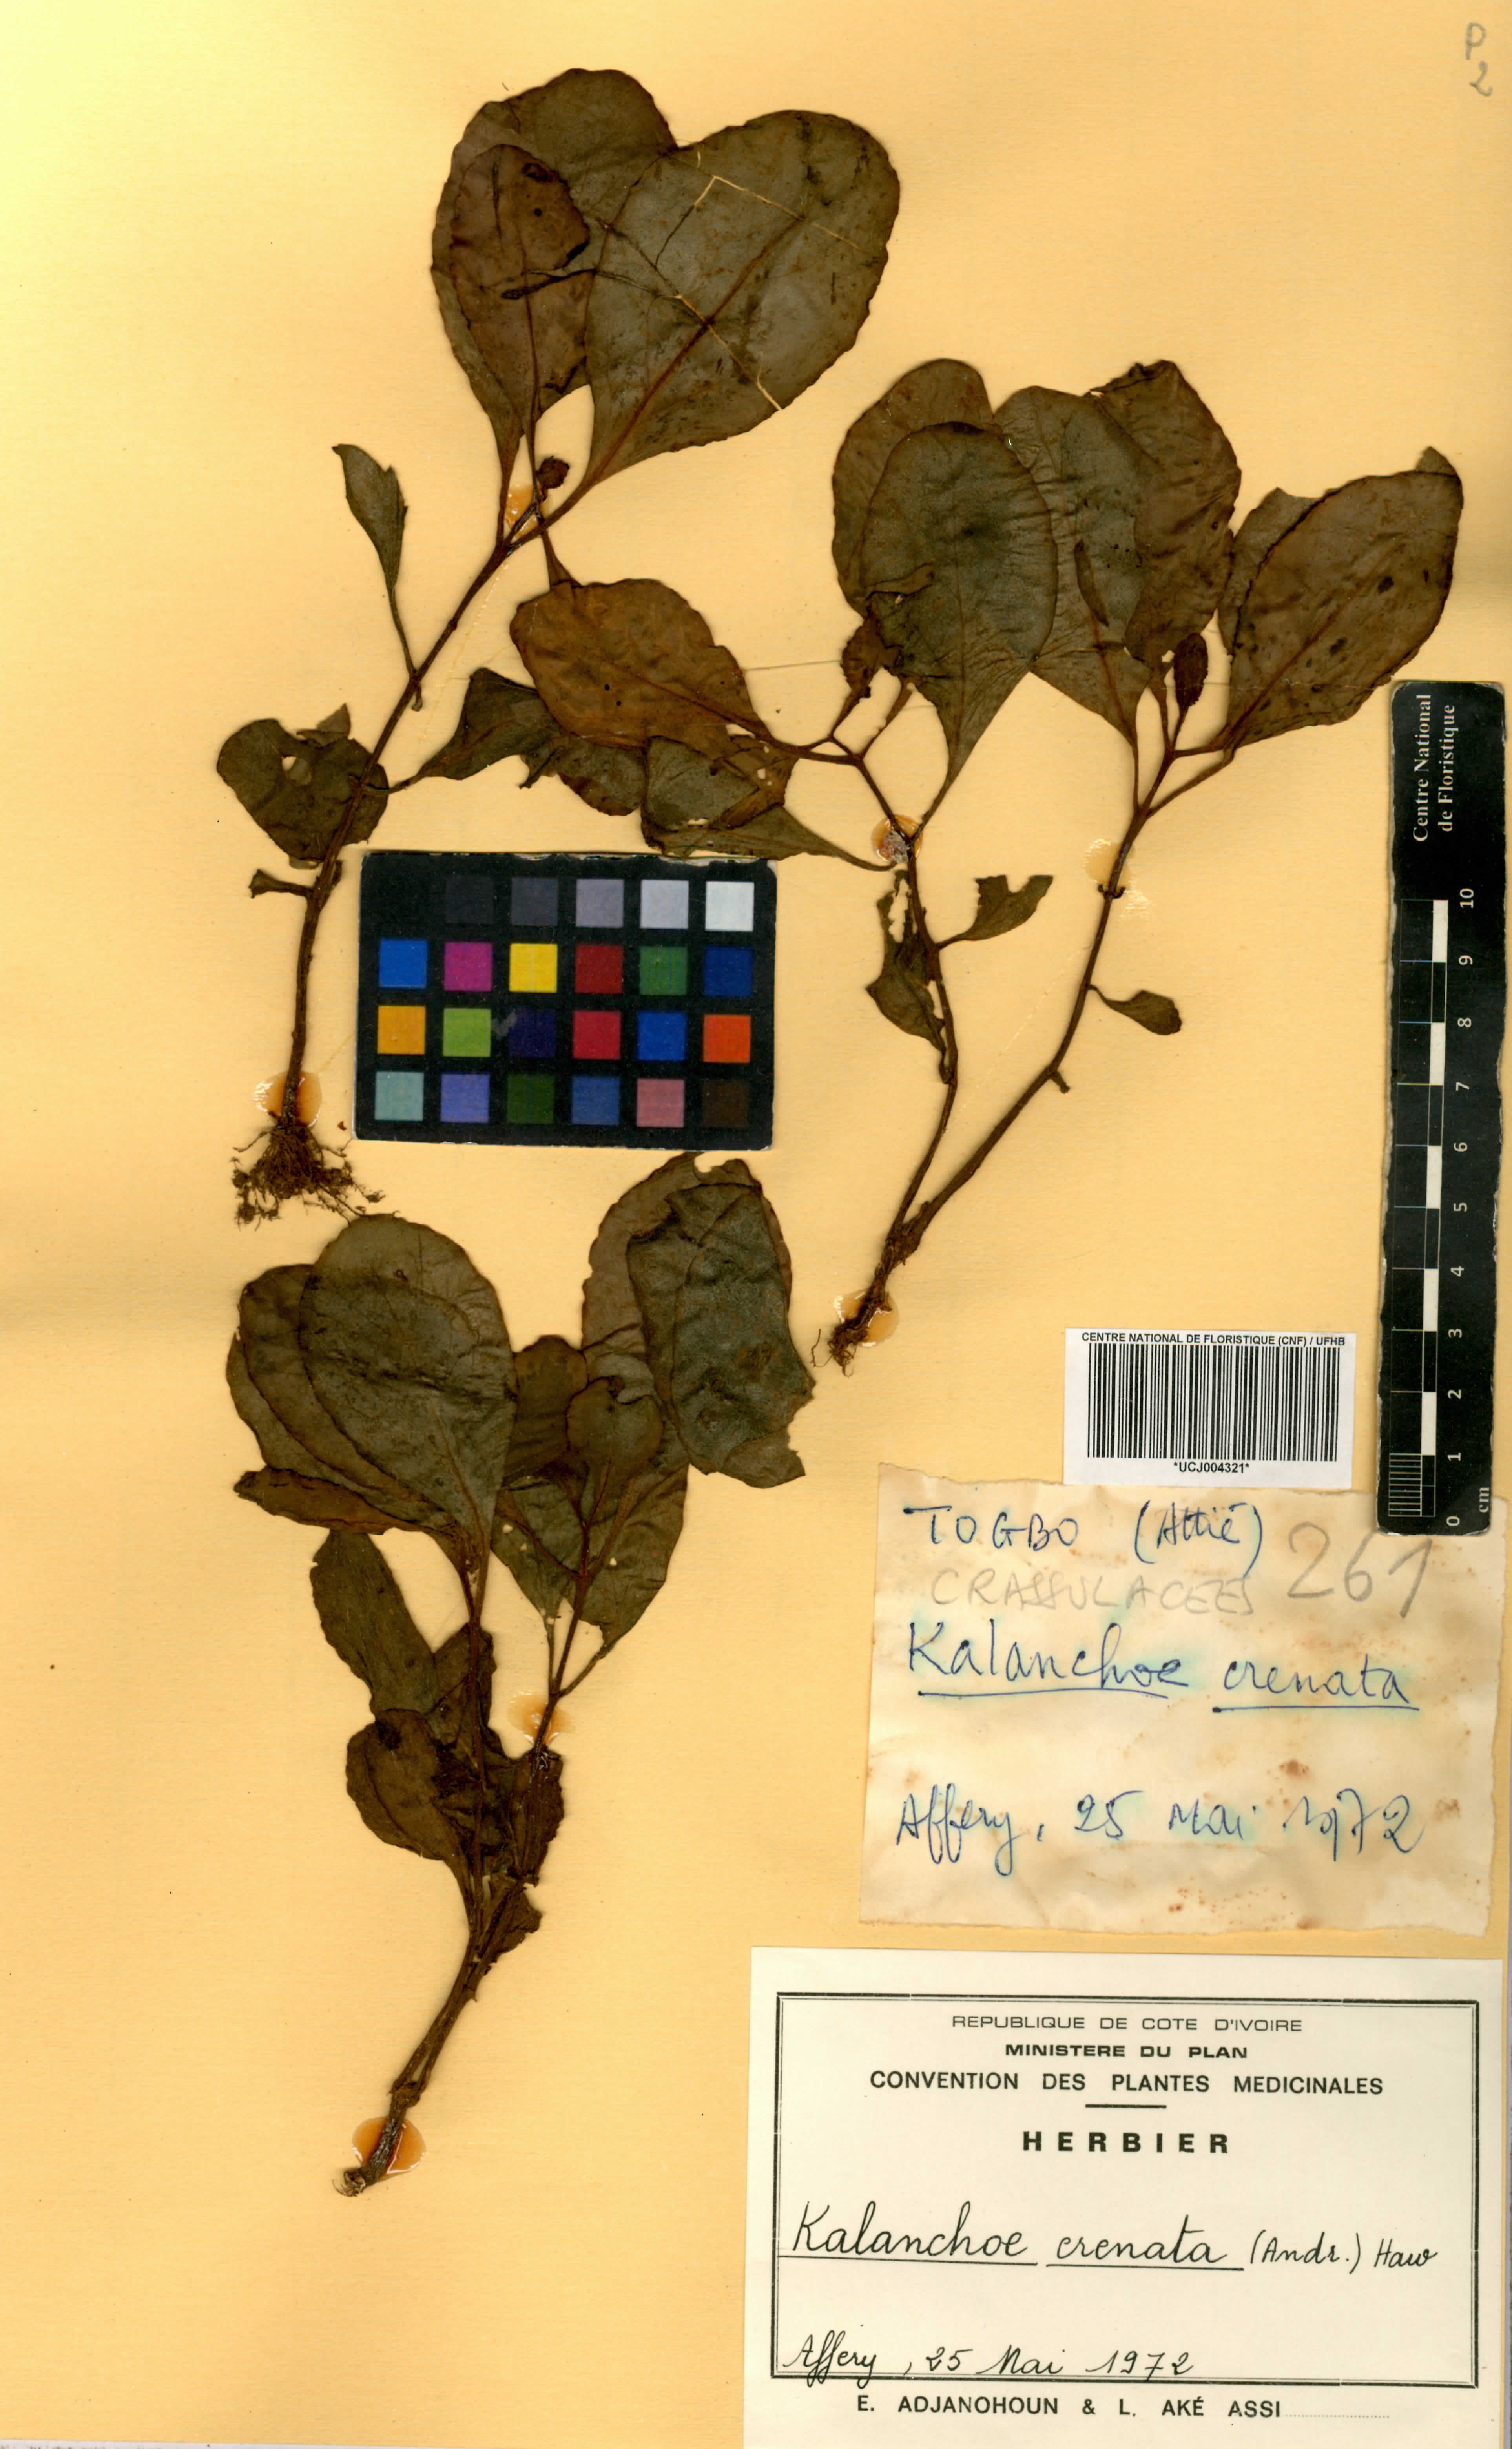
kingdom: Plantae
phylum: Tracheophyta
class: Magnoliopsida
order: Saxifragales
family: Crassulaceae
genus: Kalanchoe
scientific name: Kalanchoe crenata
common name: Neverdie
